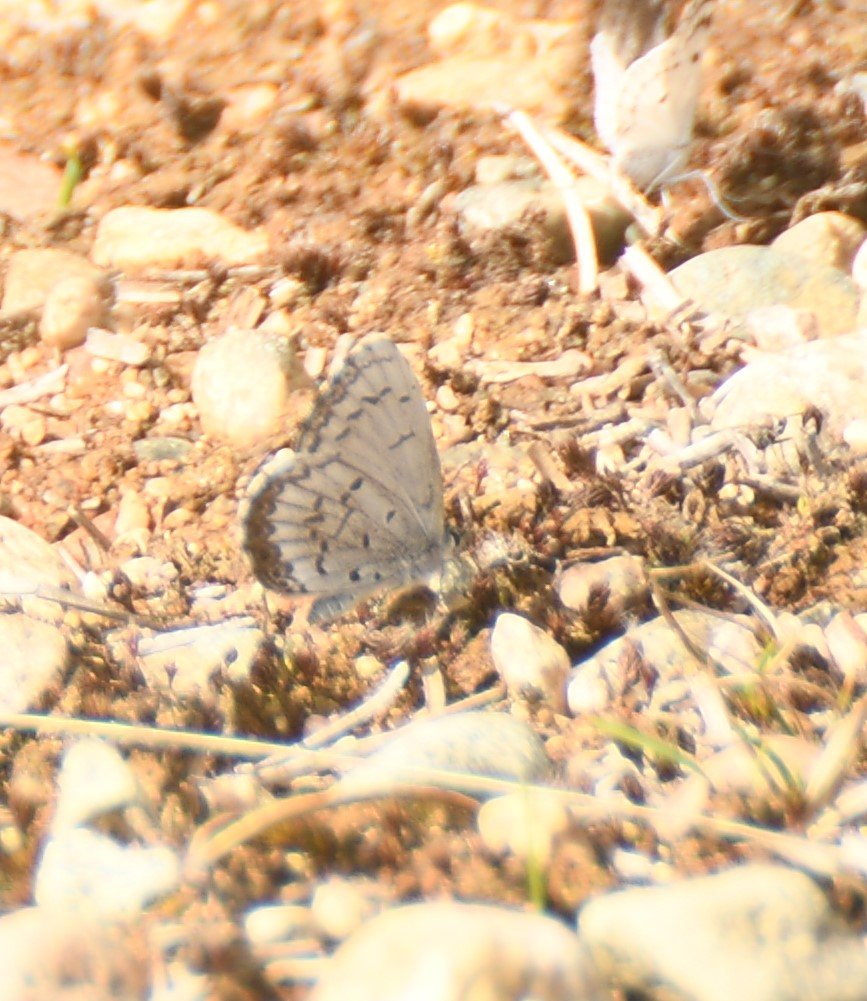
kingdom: Animalia
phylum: Arthropoda
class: Insecta
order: Lepidoptera
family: Lycaenidae
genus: Celastrina
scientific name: Celastrina lucia
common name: Northern Spring Azure
